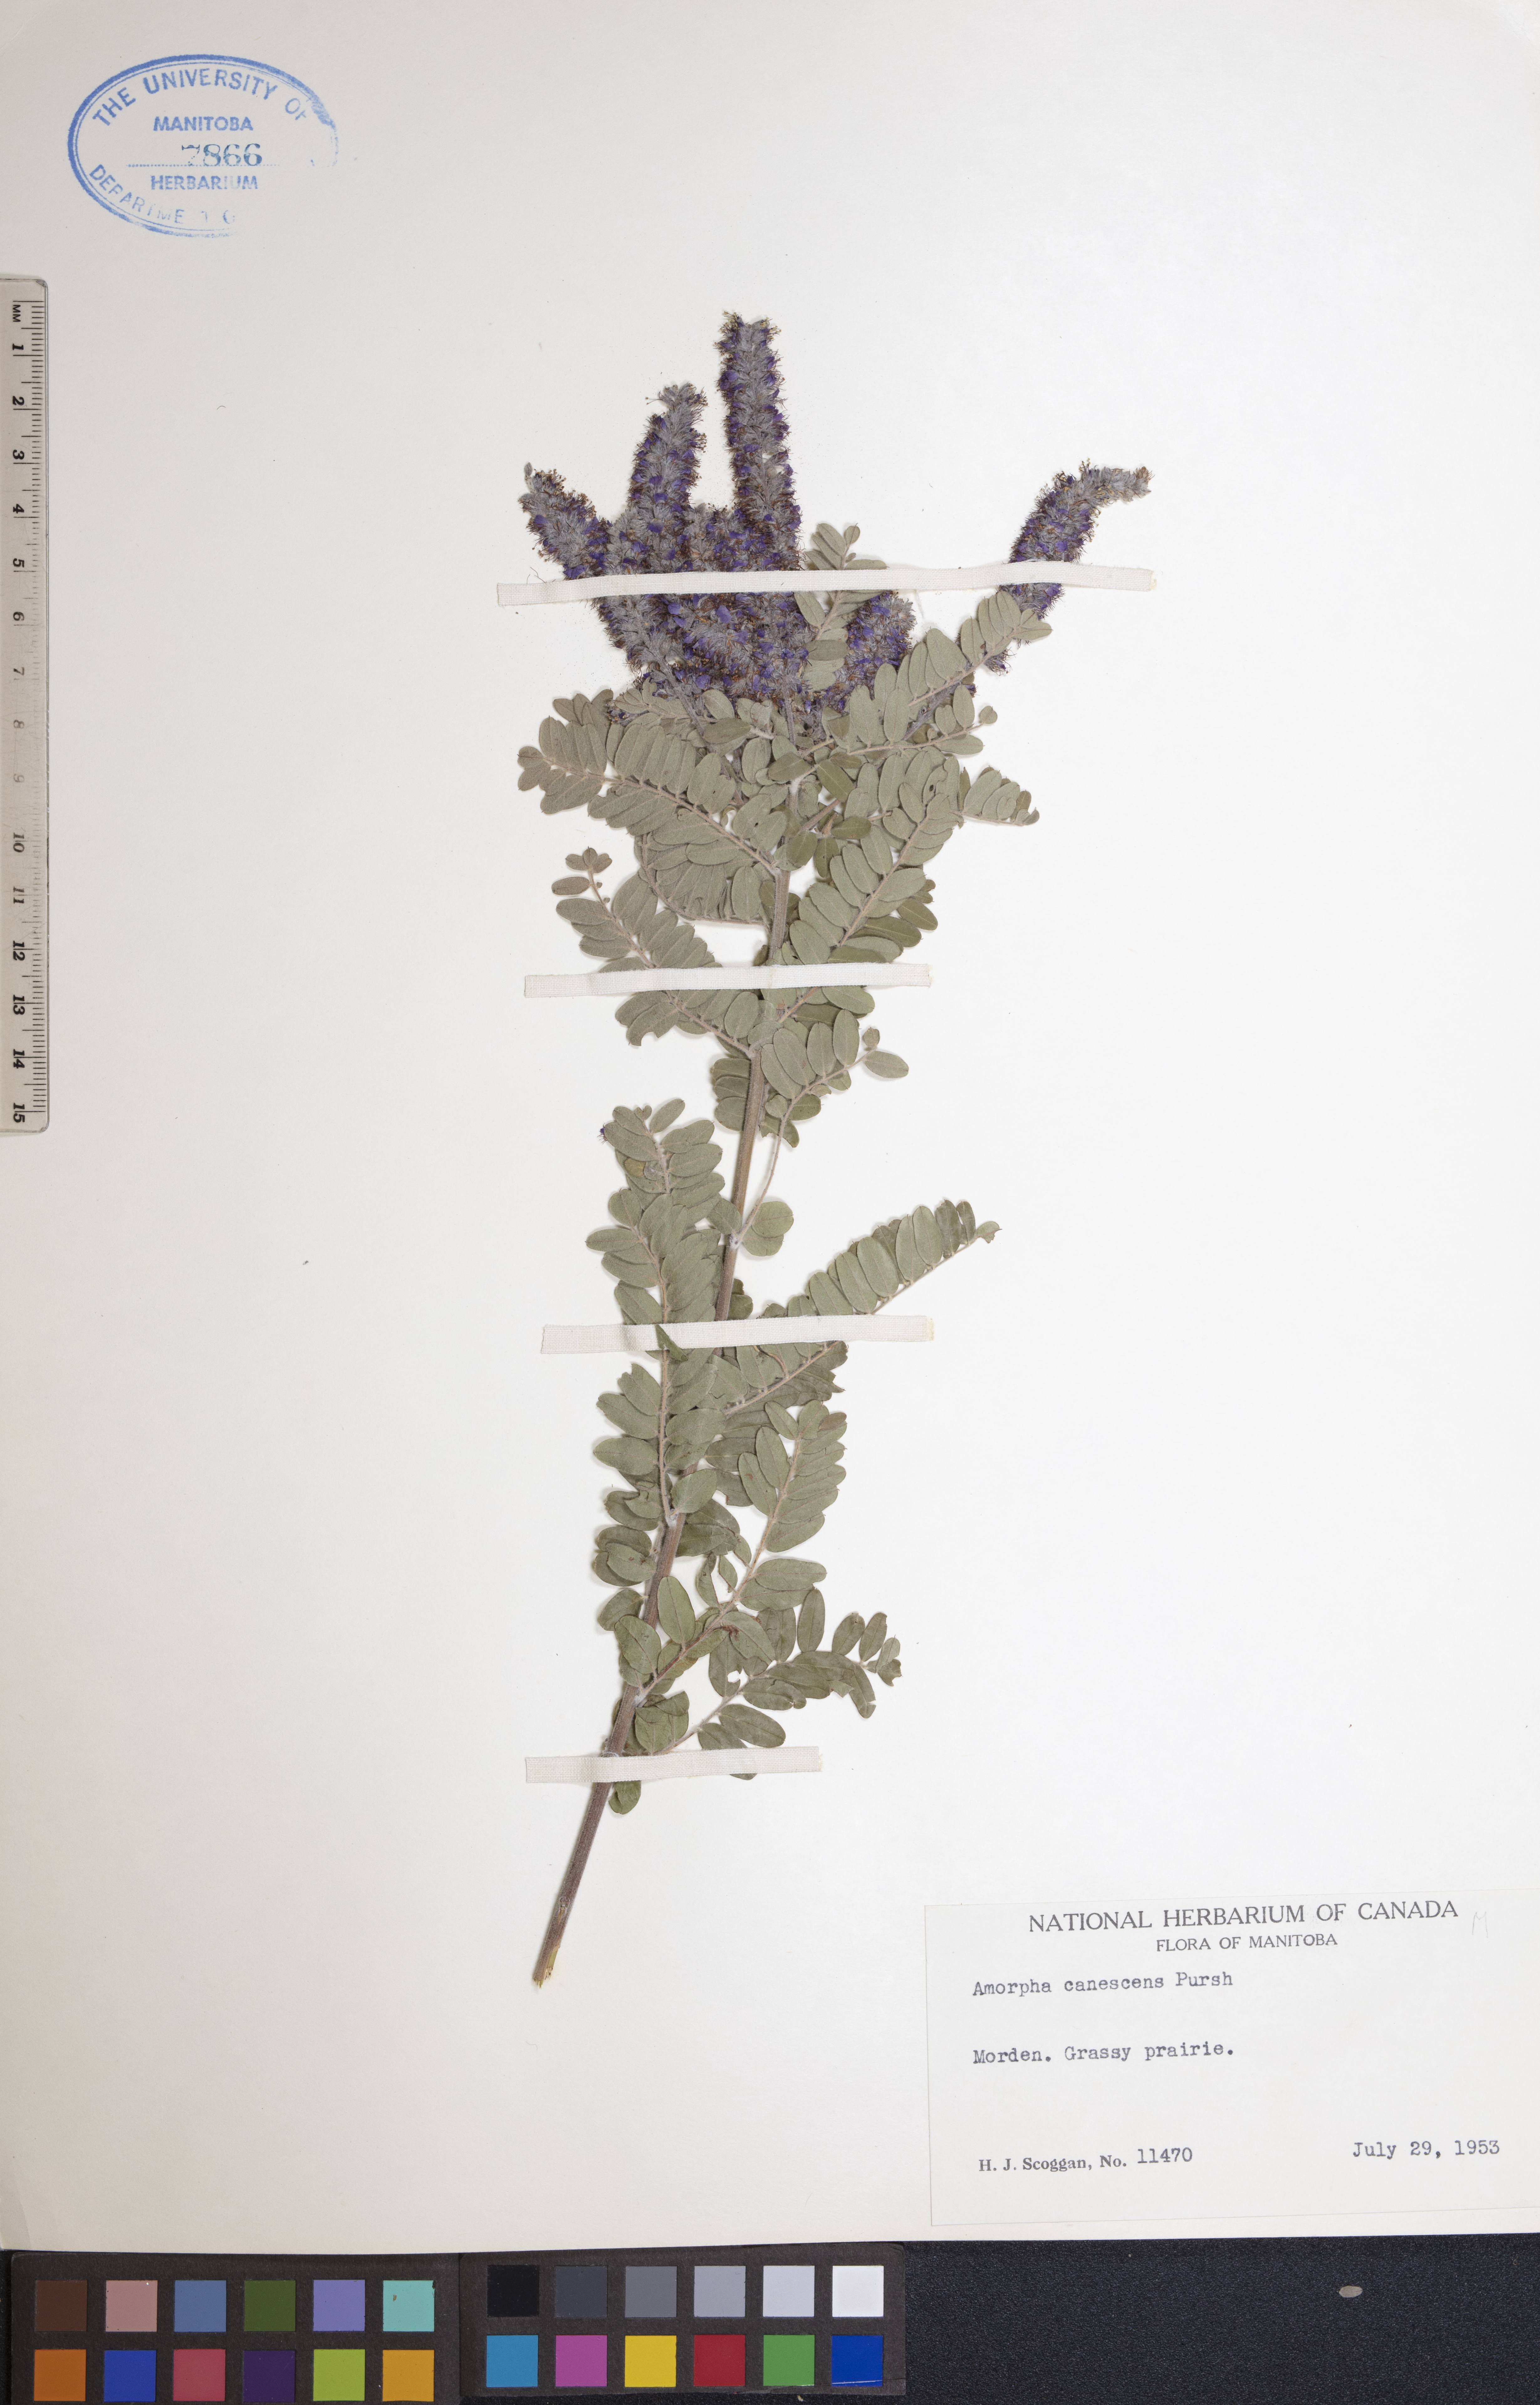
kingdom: Plantae
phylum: Tracheophyta
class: Magnoliopsida
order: Fabales
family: Fabaceae
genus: Amorpha
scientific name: Amorpha canescens
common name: Leadplant
